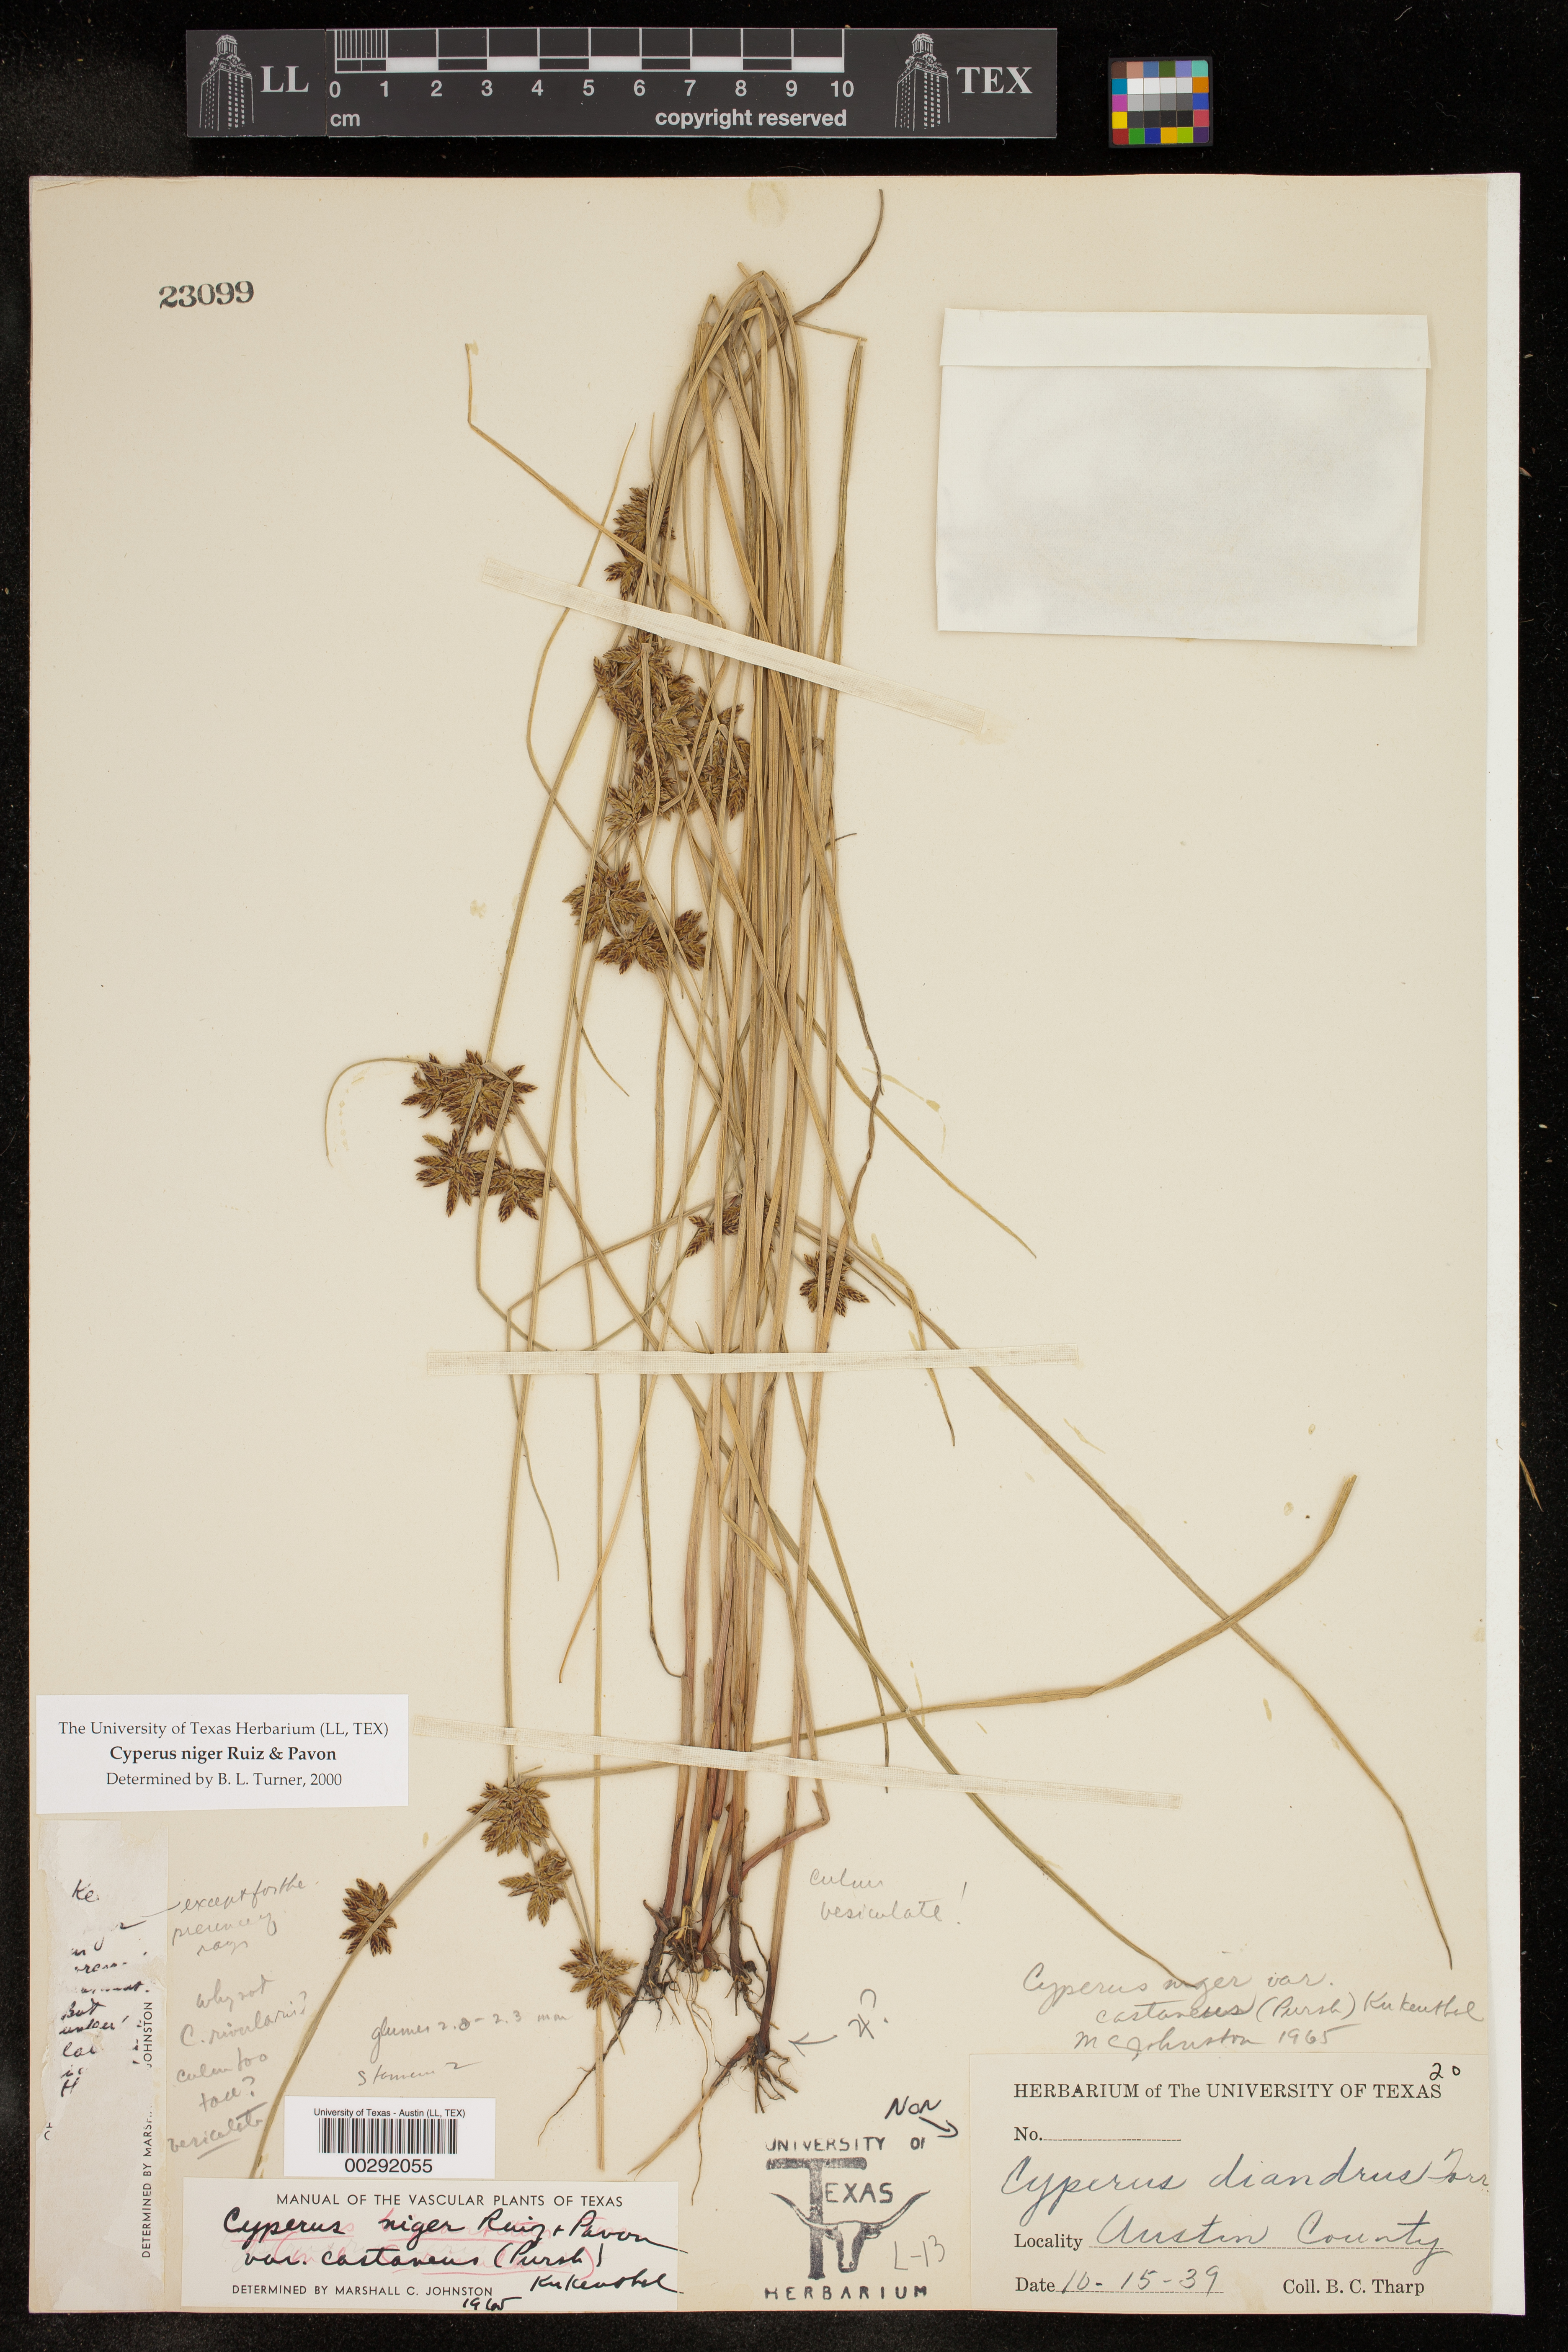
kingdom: Plantae
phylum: Tracheophyta
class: Liliopsida
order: Poales
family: Cyperaceae
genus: Cyperus
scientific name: Cyperus melanostachyus
